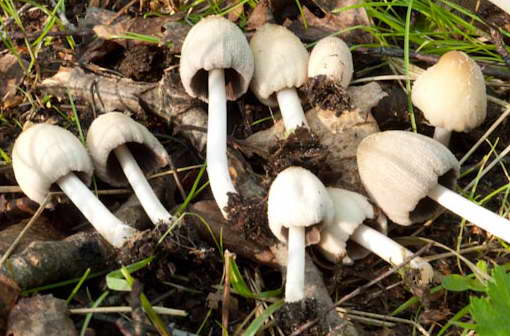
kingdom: Fungi
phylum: Basidiomycota
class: Agaricomycetes
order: Agaricales
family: Psathyrellaceae
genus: Coprinellus
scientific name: Coprinellus xanthothrix
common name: gultrådet blækhat
